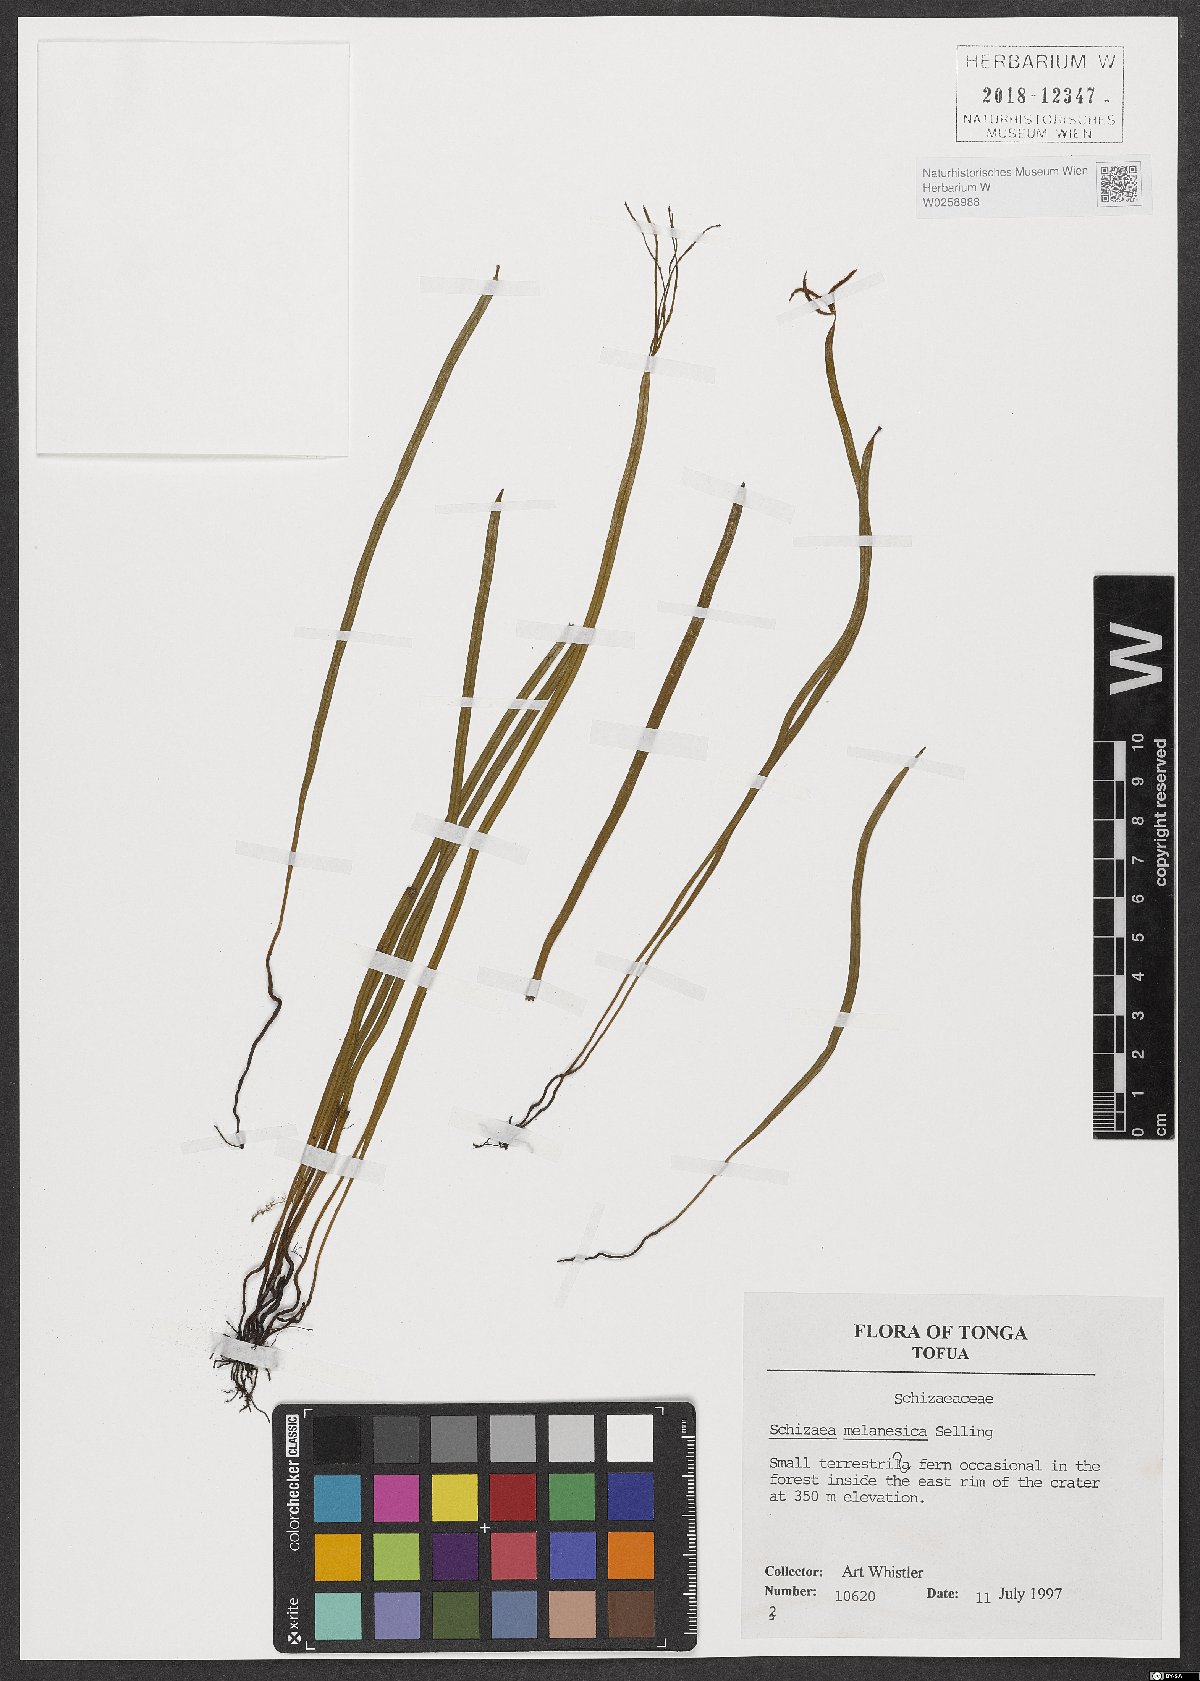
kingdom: Plantae
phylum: Tracheophyta
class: Polypodiopsida
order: Schizaeales
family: Schizaeaceae
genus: Actinostachys
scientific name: Actinostachys melanesica
